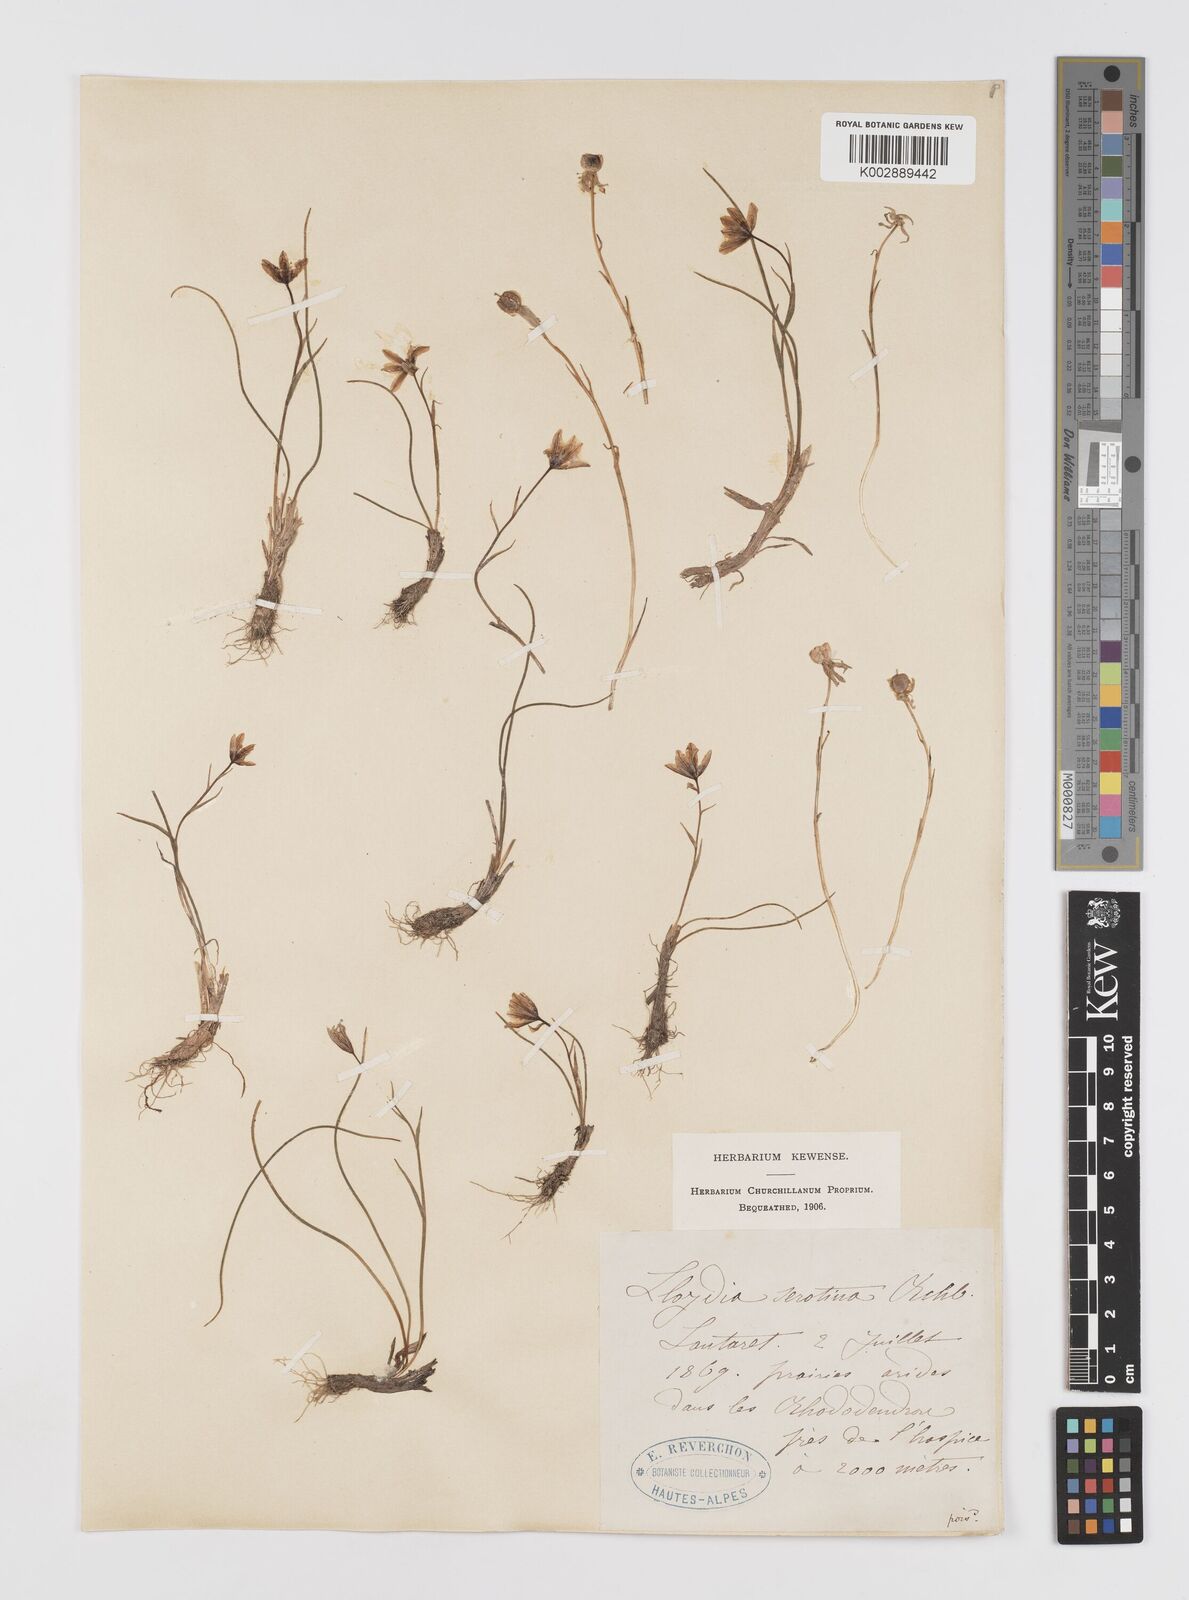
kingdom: Plantae
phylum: Tracheophyta
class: Liliopsida
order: Liliales
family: Liliaceae
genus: Gagea
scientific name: Gagea
